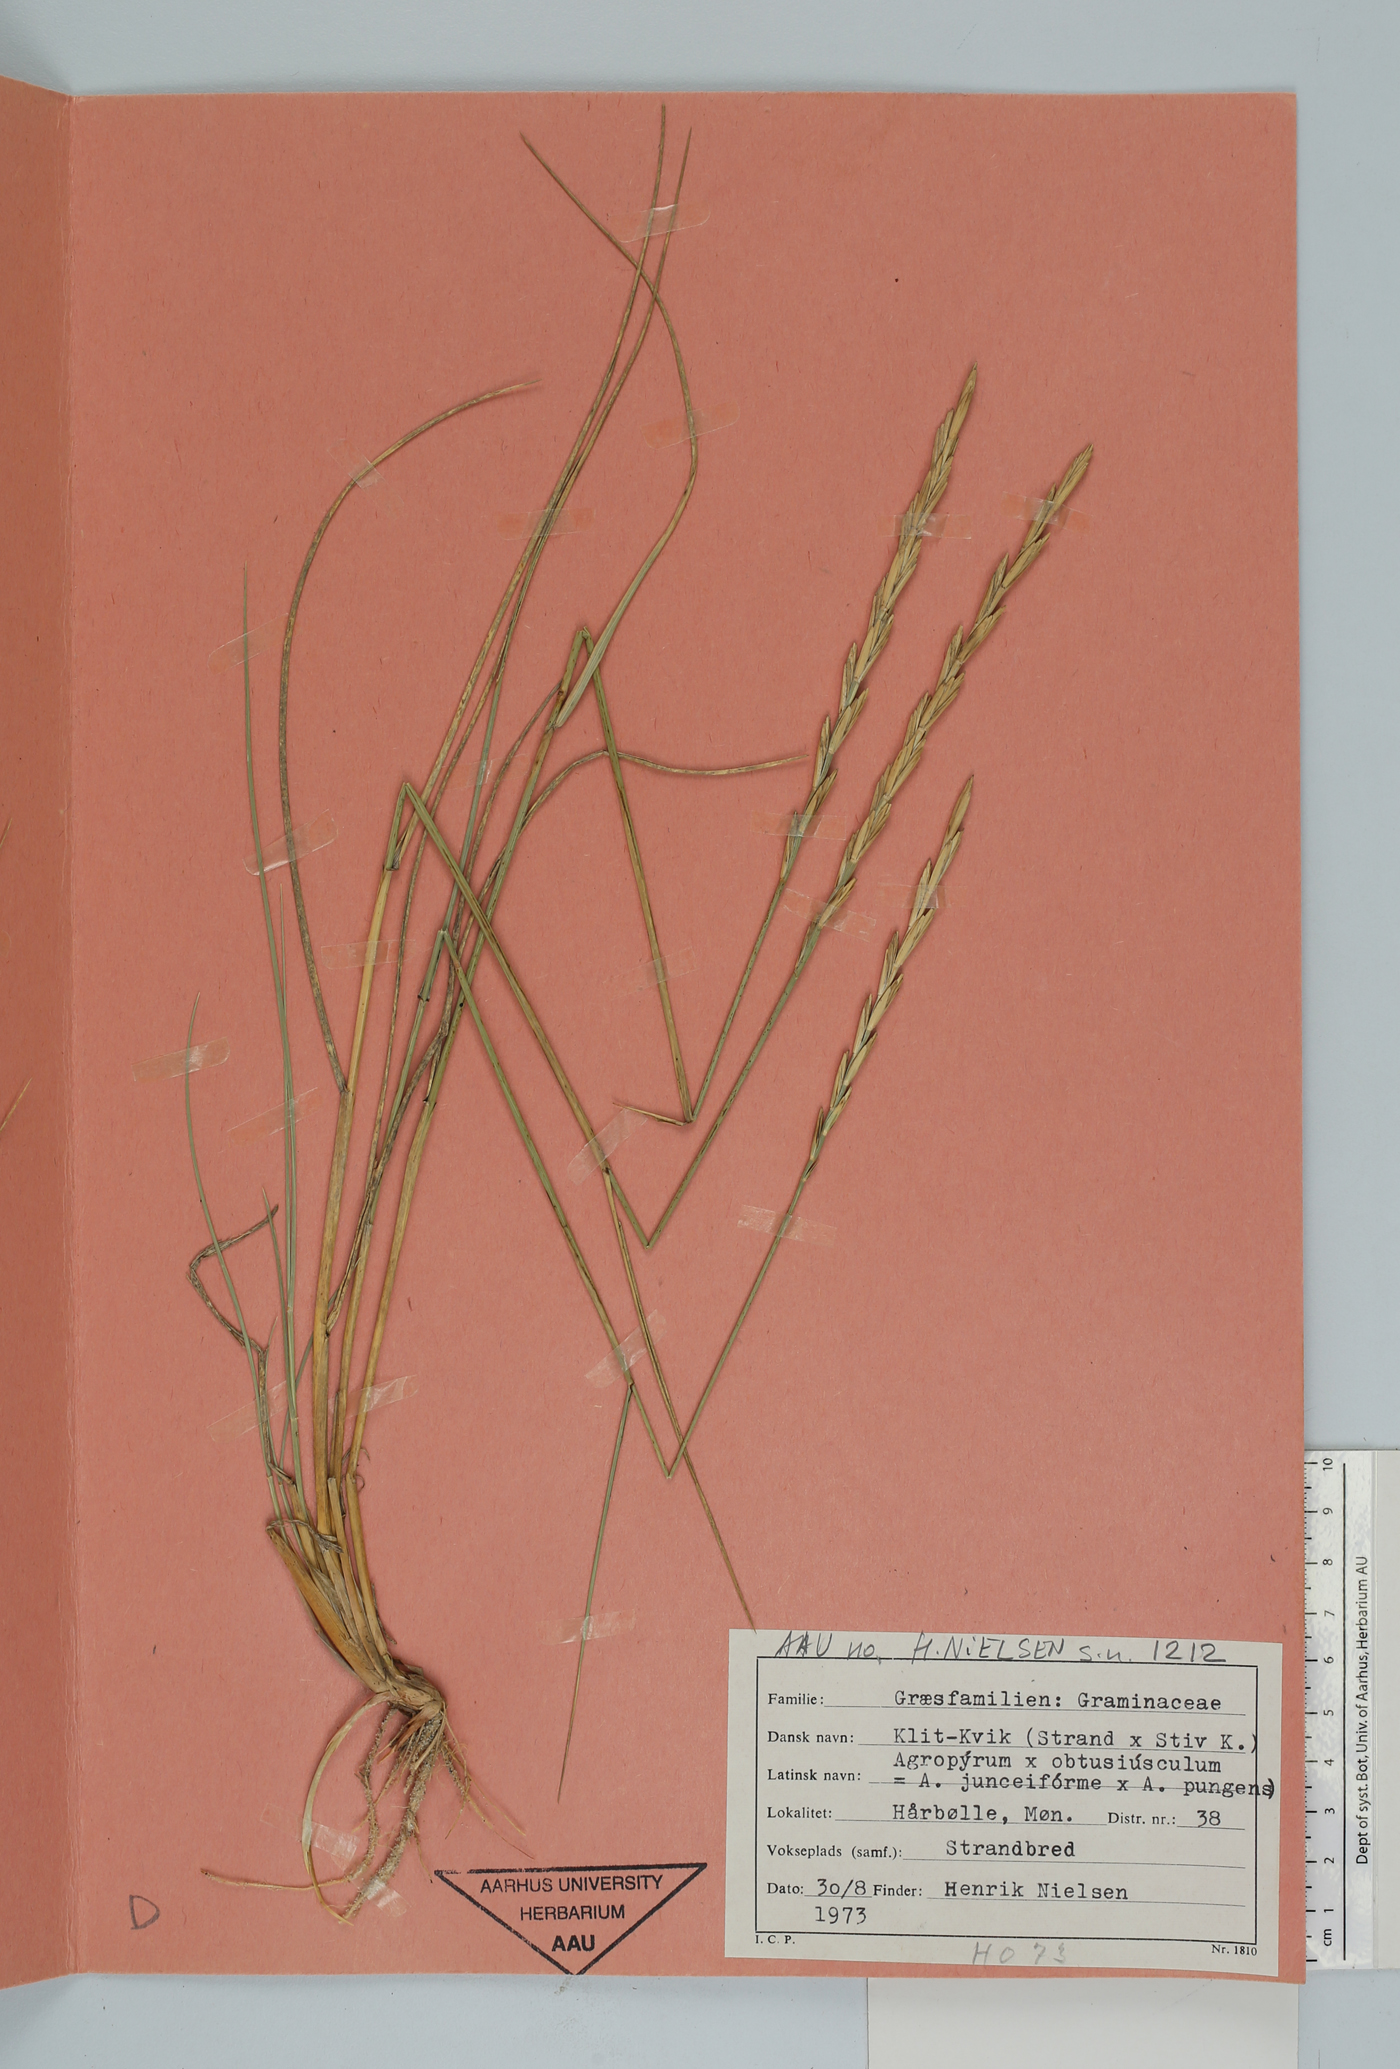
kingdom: Plantae
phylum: Tracheophyta
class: Liliopsida
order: Poales
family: Poaceae
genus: Elymus
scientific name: Elymus
